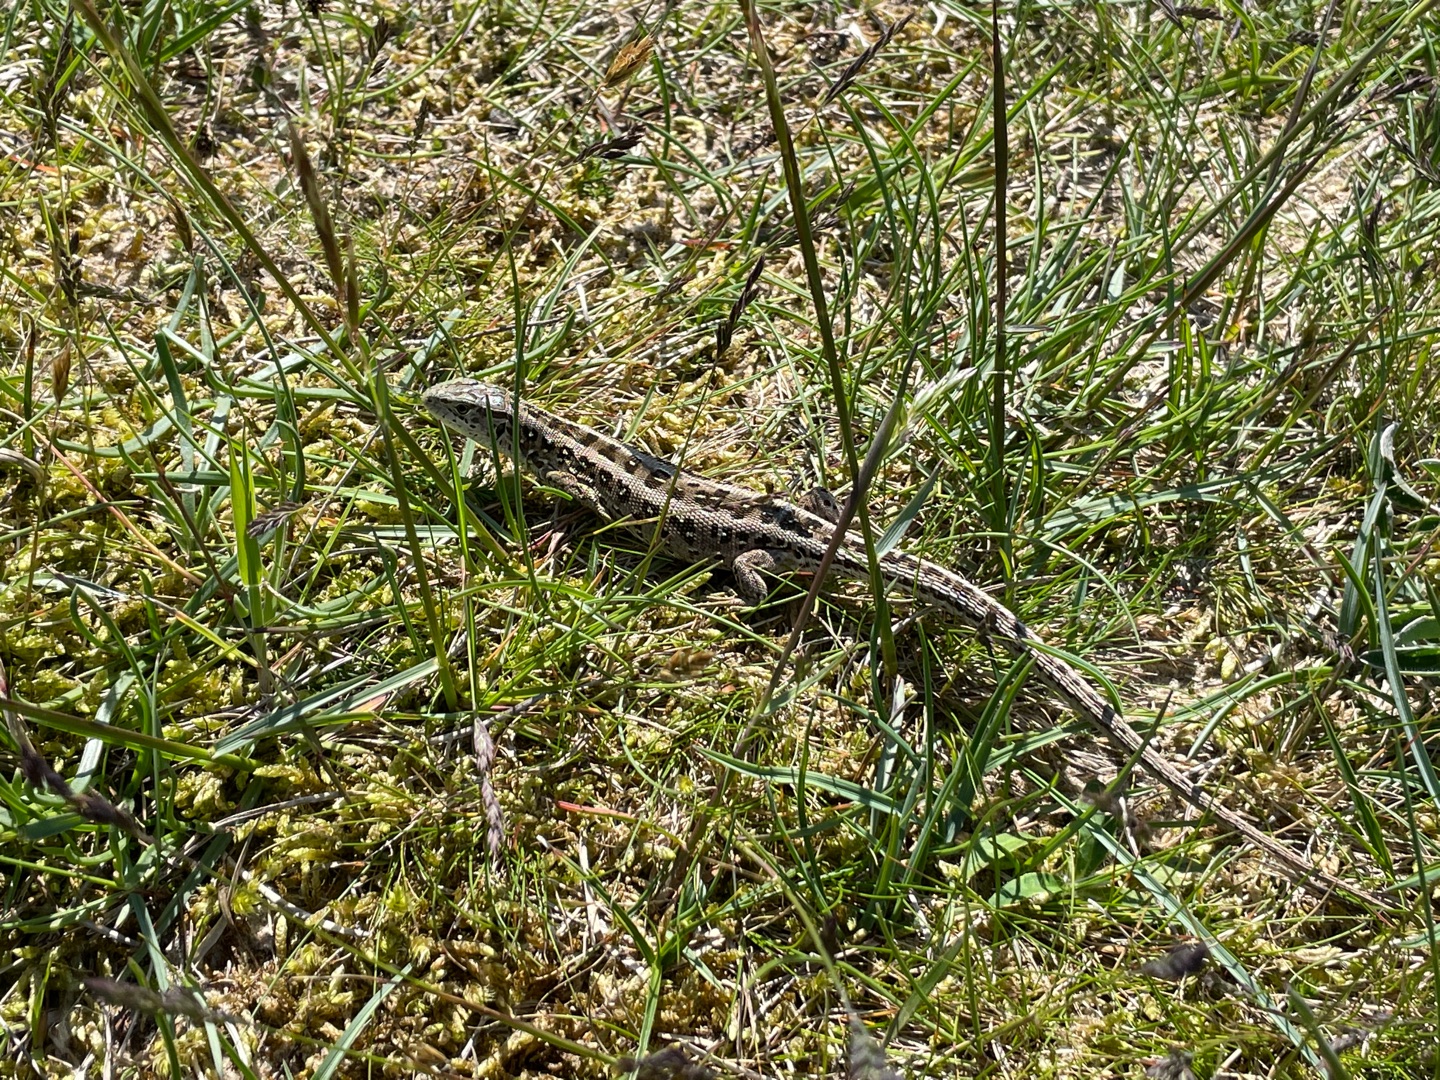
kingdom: Animalia
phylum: Chordata
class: Squamata
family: Lacertidae
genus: Lacerta
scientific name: Lacerta agilis
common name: Markfirben
